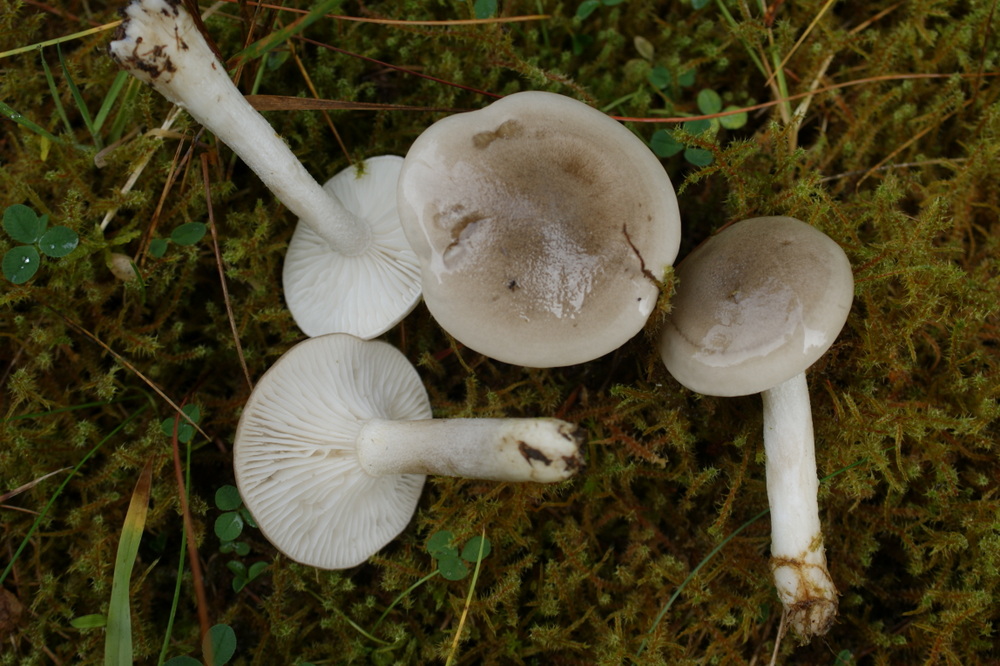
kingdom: Fungi
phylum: Basidiomycota
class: Agaricomycetes
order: Agaricales
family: Hygrophoraceae
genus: Hygrophorus
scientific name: Hygrophorus agathosmus
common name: vellugtende sneglehat
